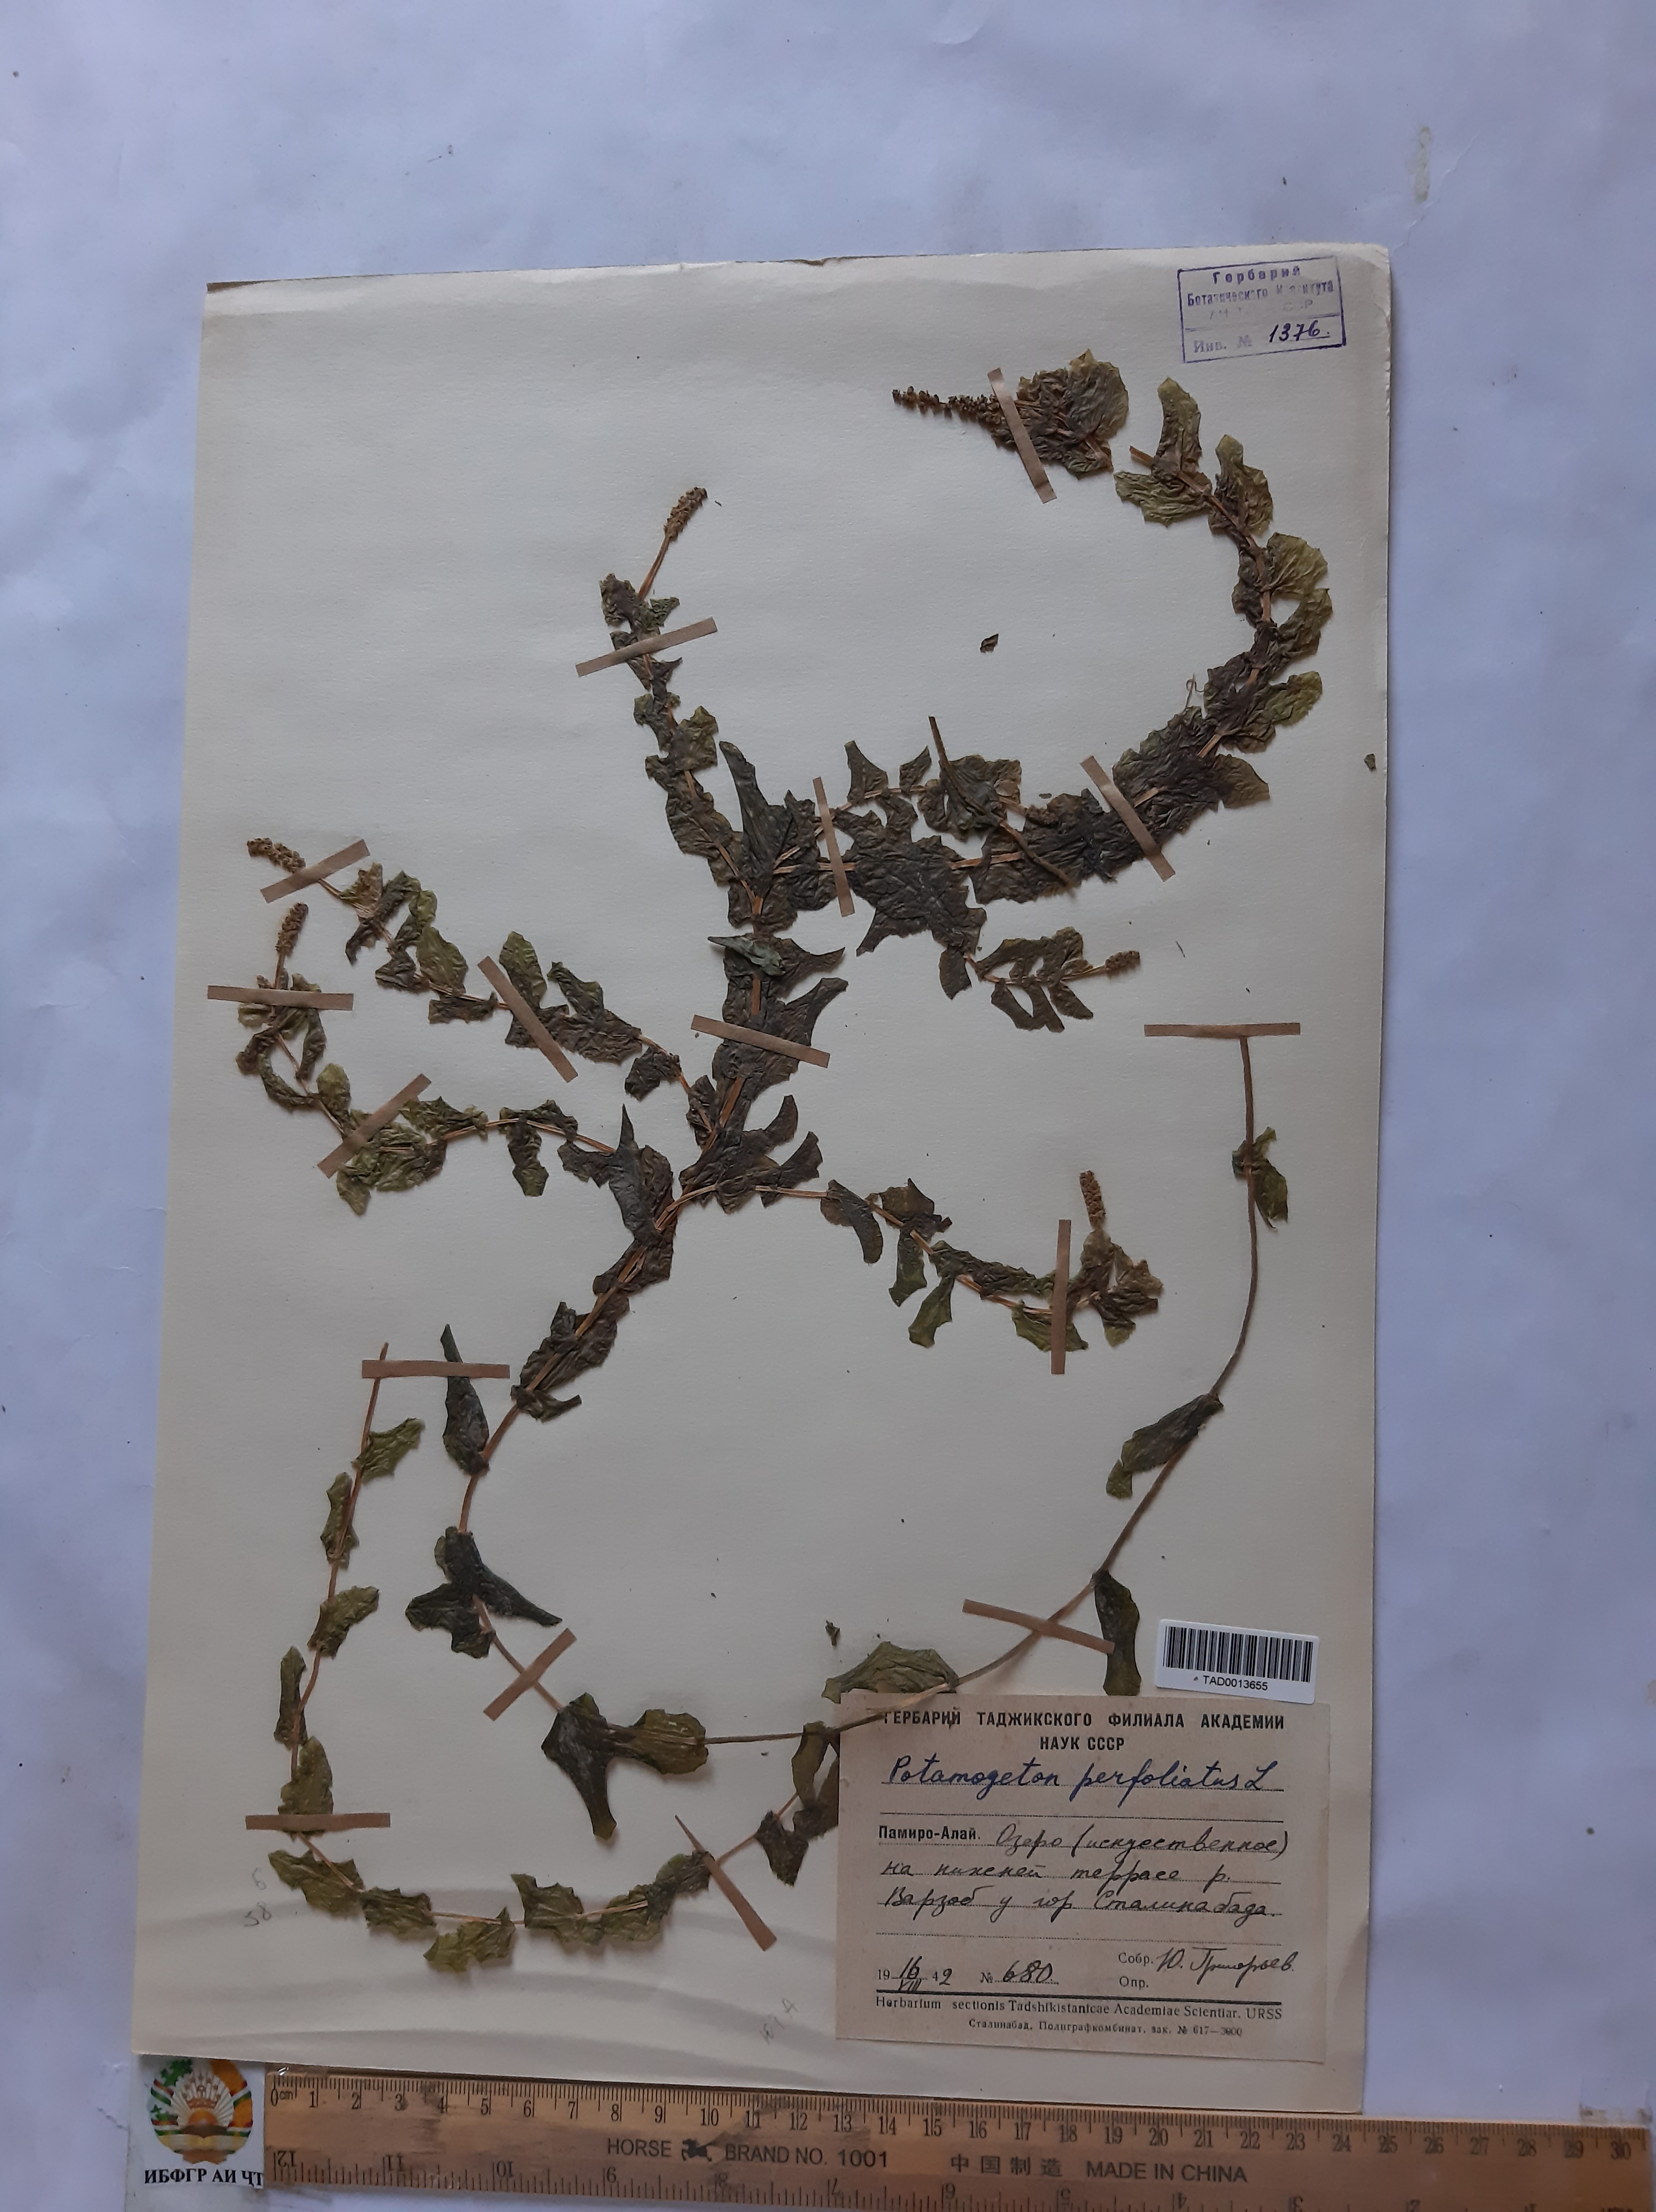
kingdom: Plantae
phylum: Tracheophyta
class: Liliopsida
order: Alismatales
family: Potamogetonaceae
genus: Potamogeton
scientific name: Potamogeton perfoliatus
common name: Perfoliate pondweed
